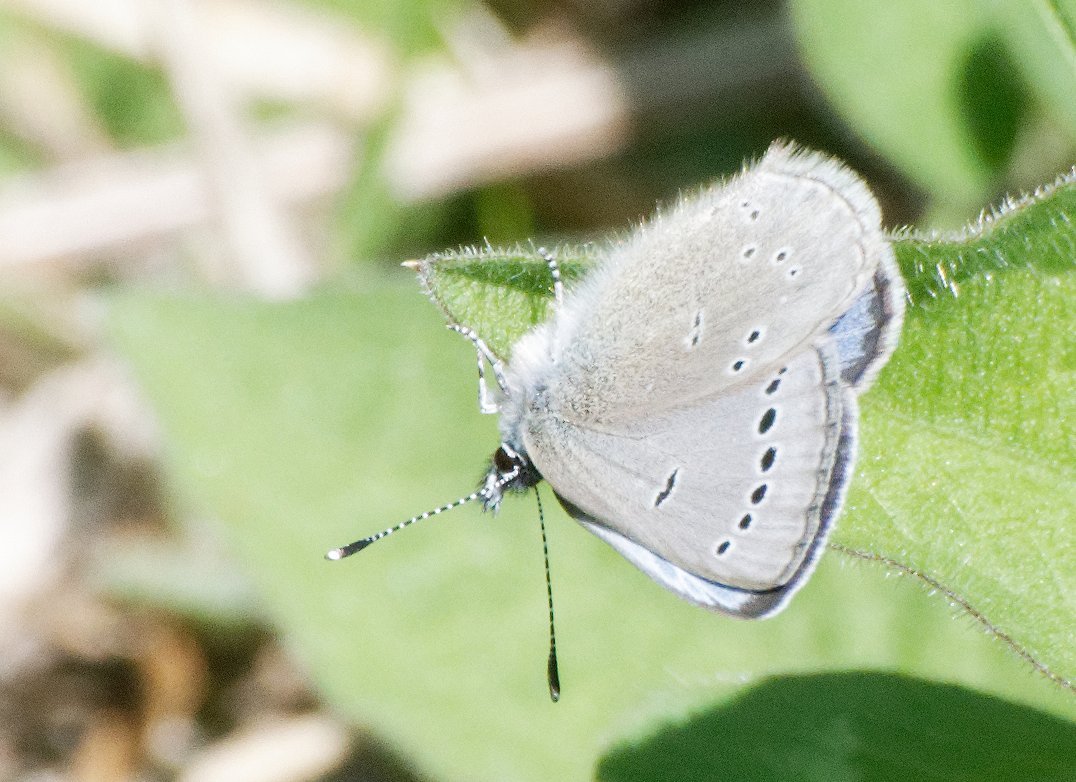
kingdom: Animalia
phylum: Arthropoda
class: Insecta
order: Lepidoptera
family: Lycaenidae
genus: Glaucopsyche
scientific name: Glaucopsyche lygdamus
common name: Silvery Blue
